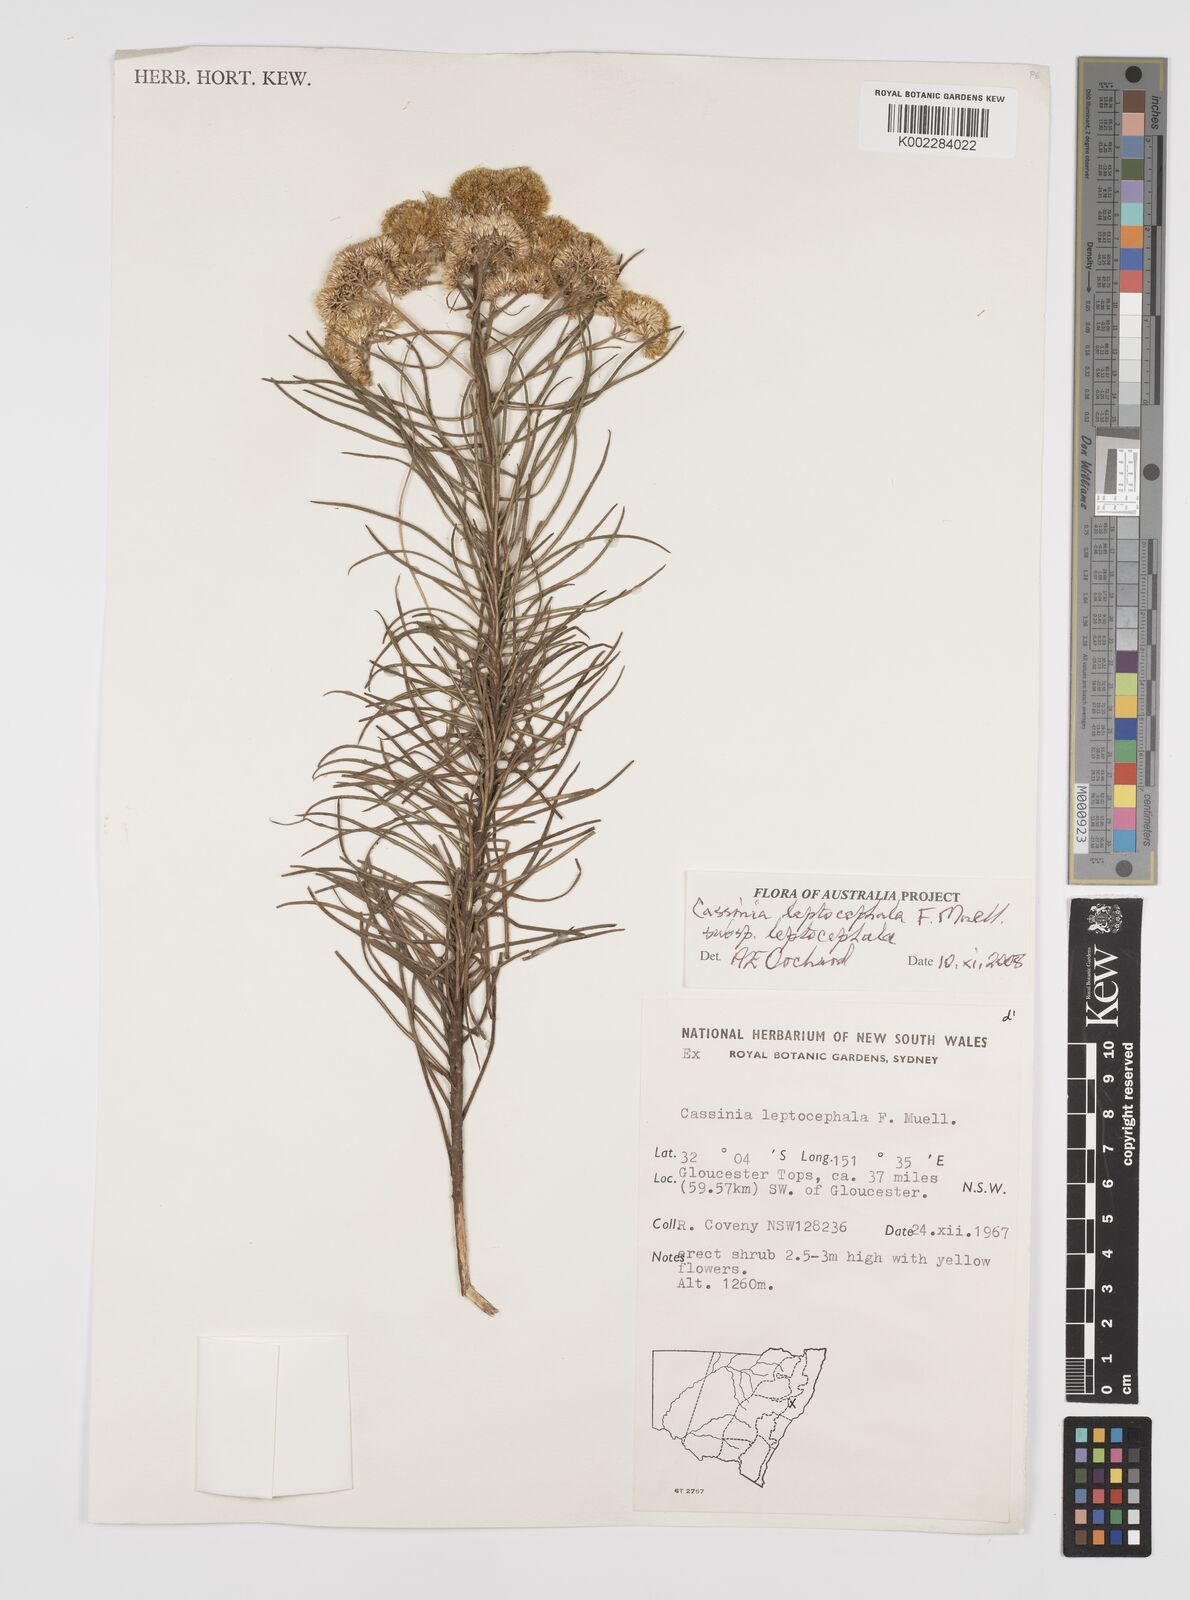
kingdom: Plantae
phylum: Tracheophyta
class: Magnoliopsida
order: Asterales
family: Asteraceae
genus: Cassinia
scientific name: Cassinia leptocephala
